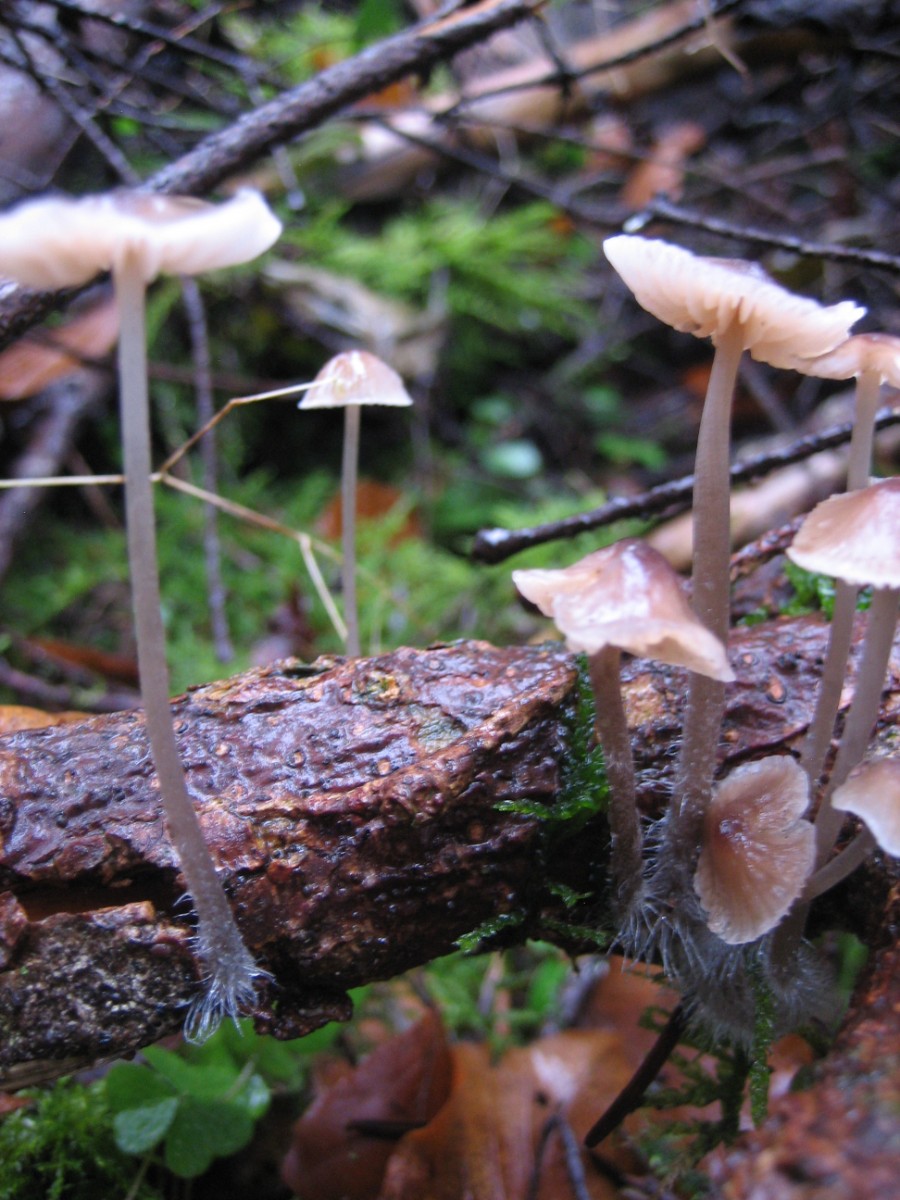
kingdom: Fungi
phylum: Basidiomycota
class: Agaricomycetes
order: Agaricales
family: Mycenaceae
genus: Mycena
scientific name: Mycena
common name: huesvamp
